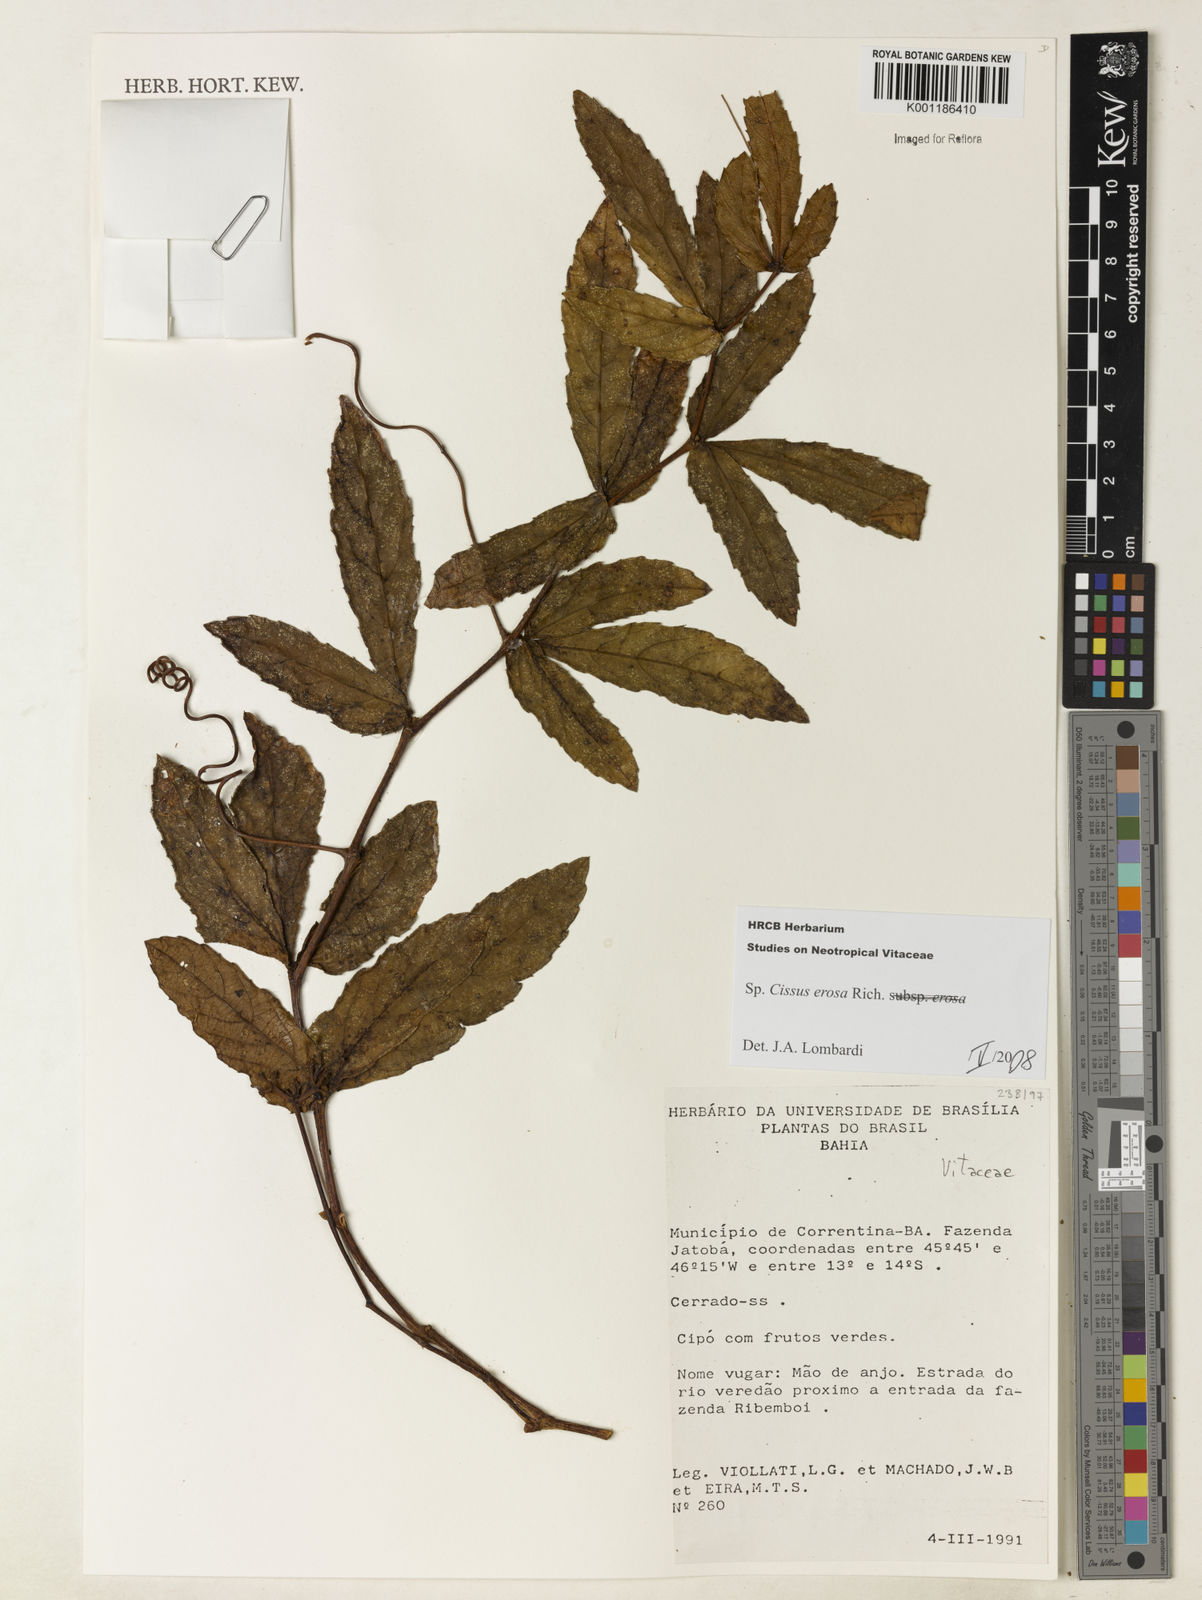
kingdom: Plantae
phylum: Tracheophyta
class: Magnoliopsida
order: Vitales
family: Vitaceae
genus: Cissus
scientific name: Cissus erosa
